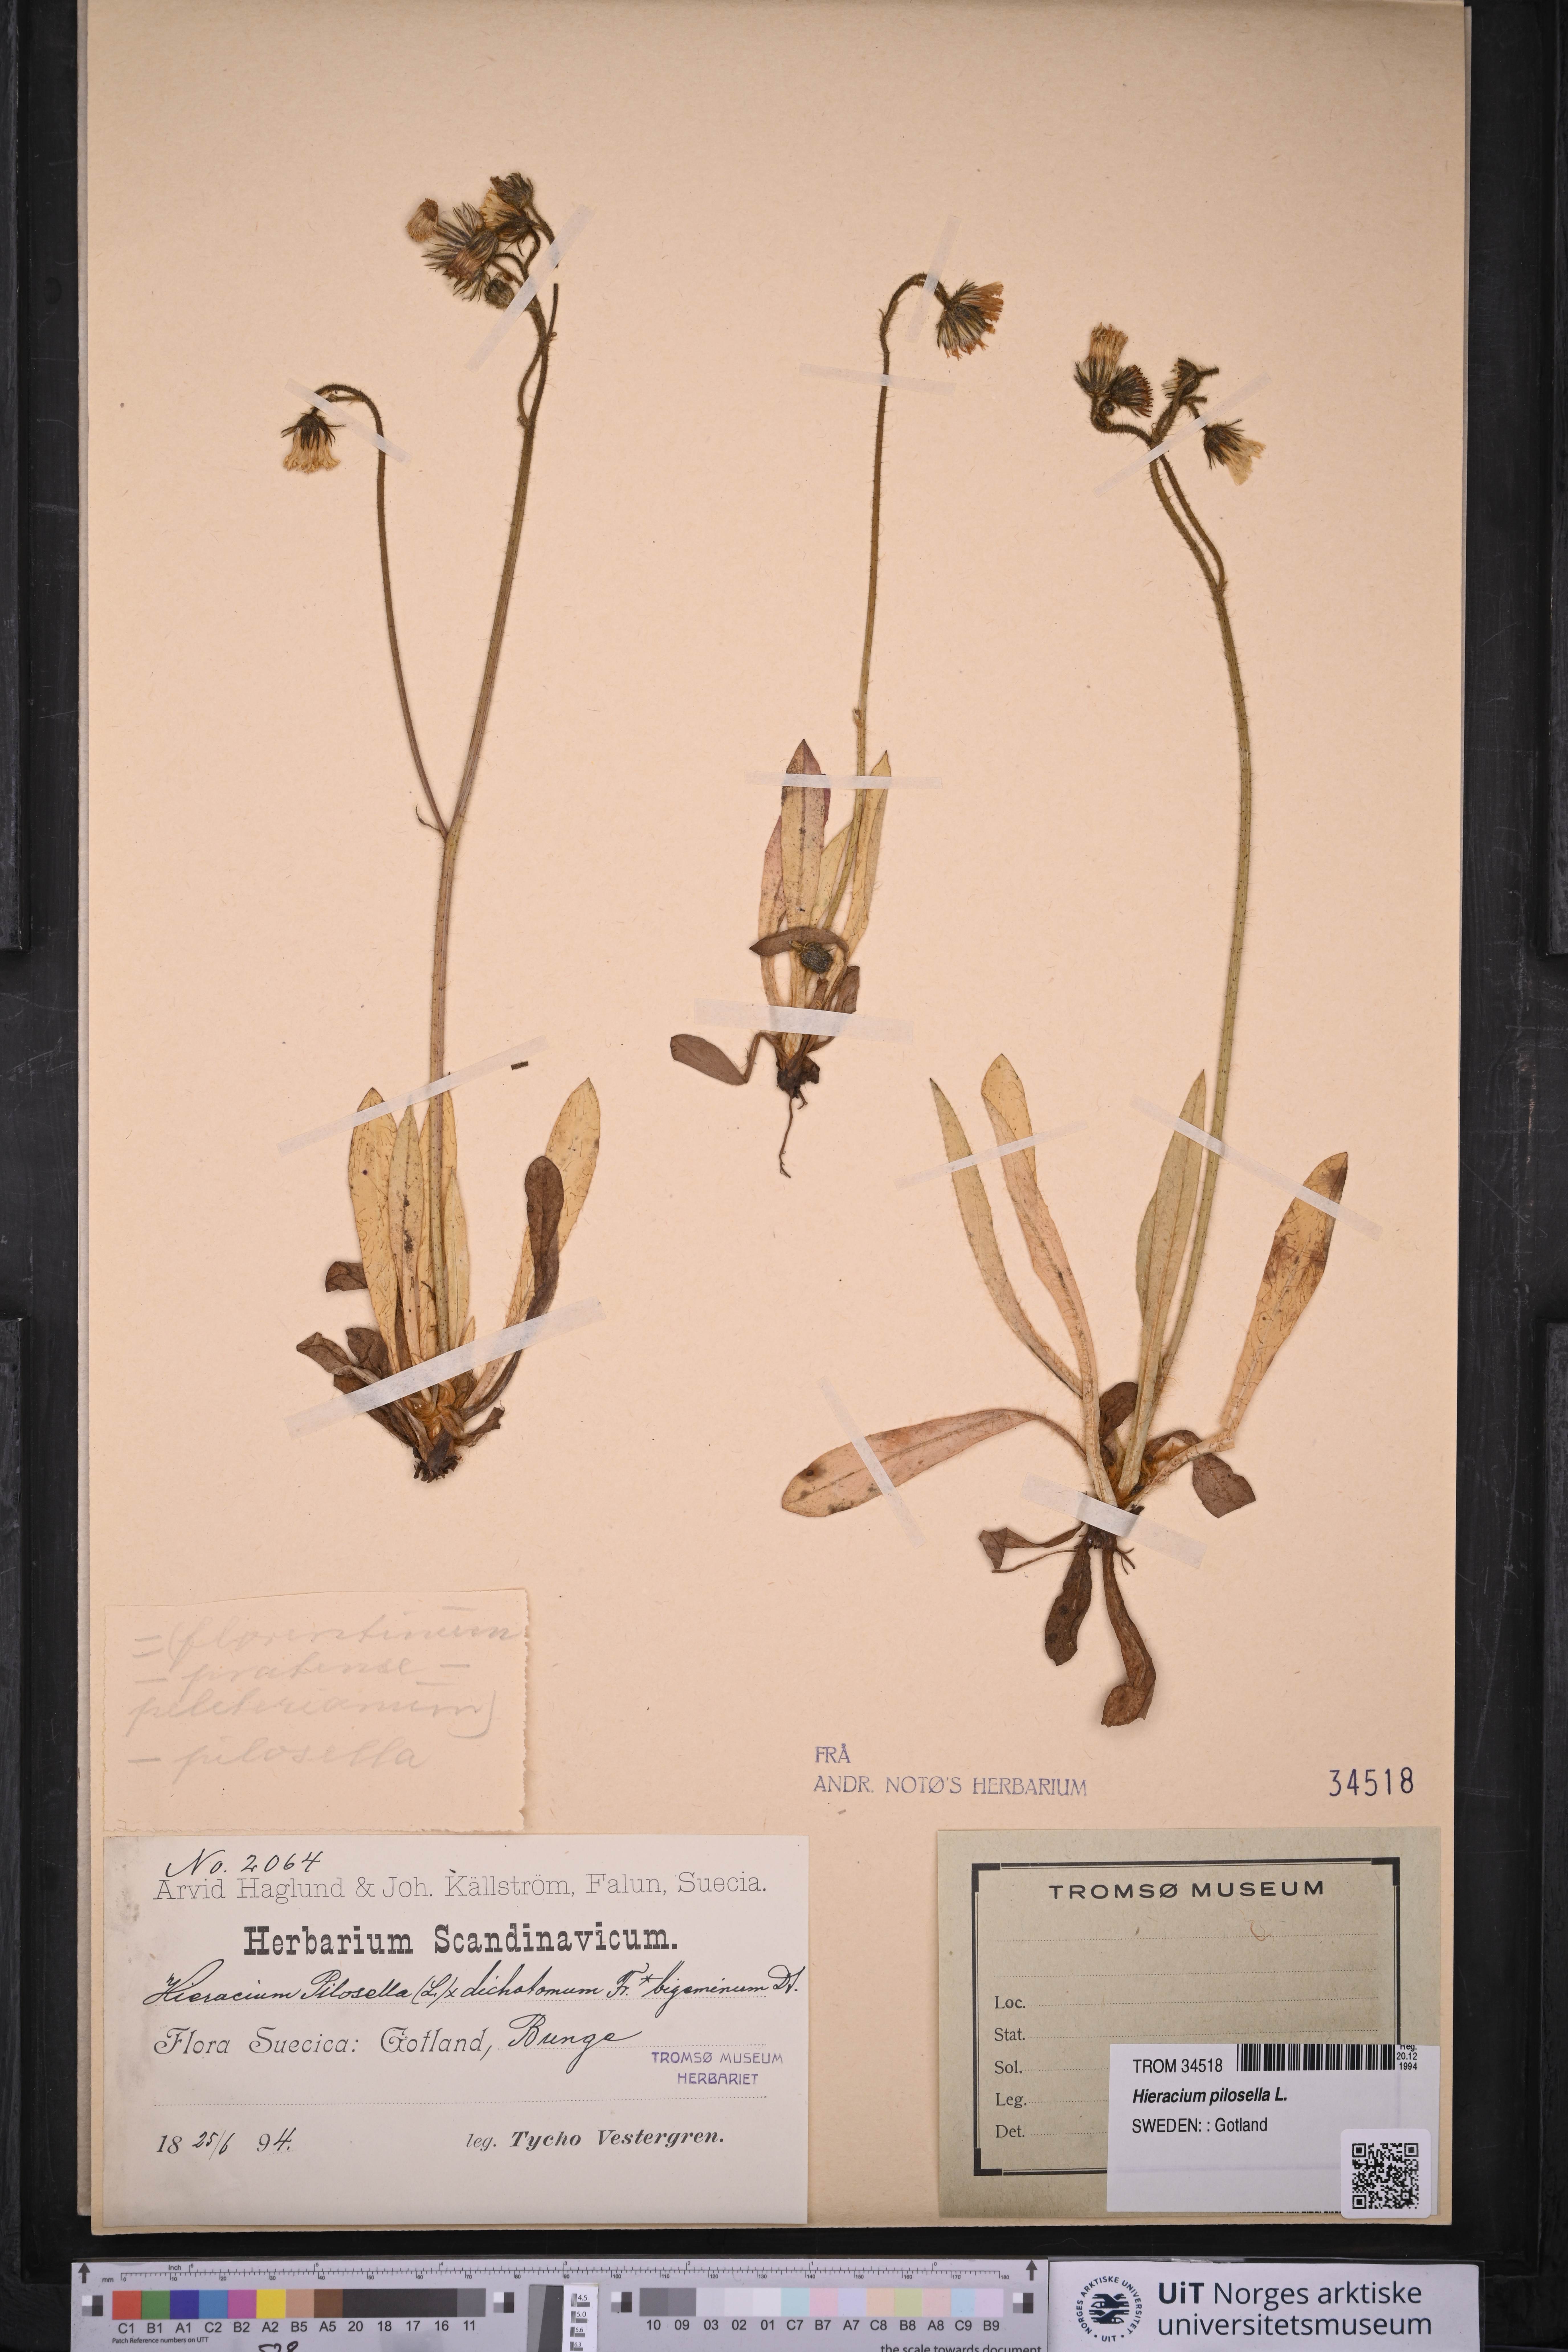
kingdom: Plantae
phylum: Tracheophyta
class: Magnoliopsida
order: Asterales
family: Asteraceae
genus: Pilosella
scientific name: Pilosella officinarum
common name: Mouse-ear hawkweed
